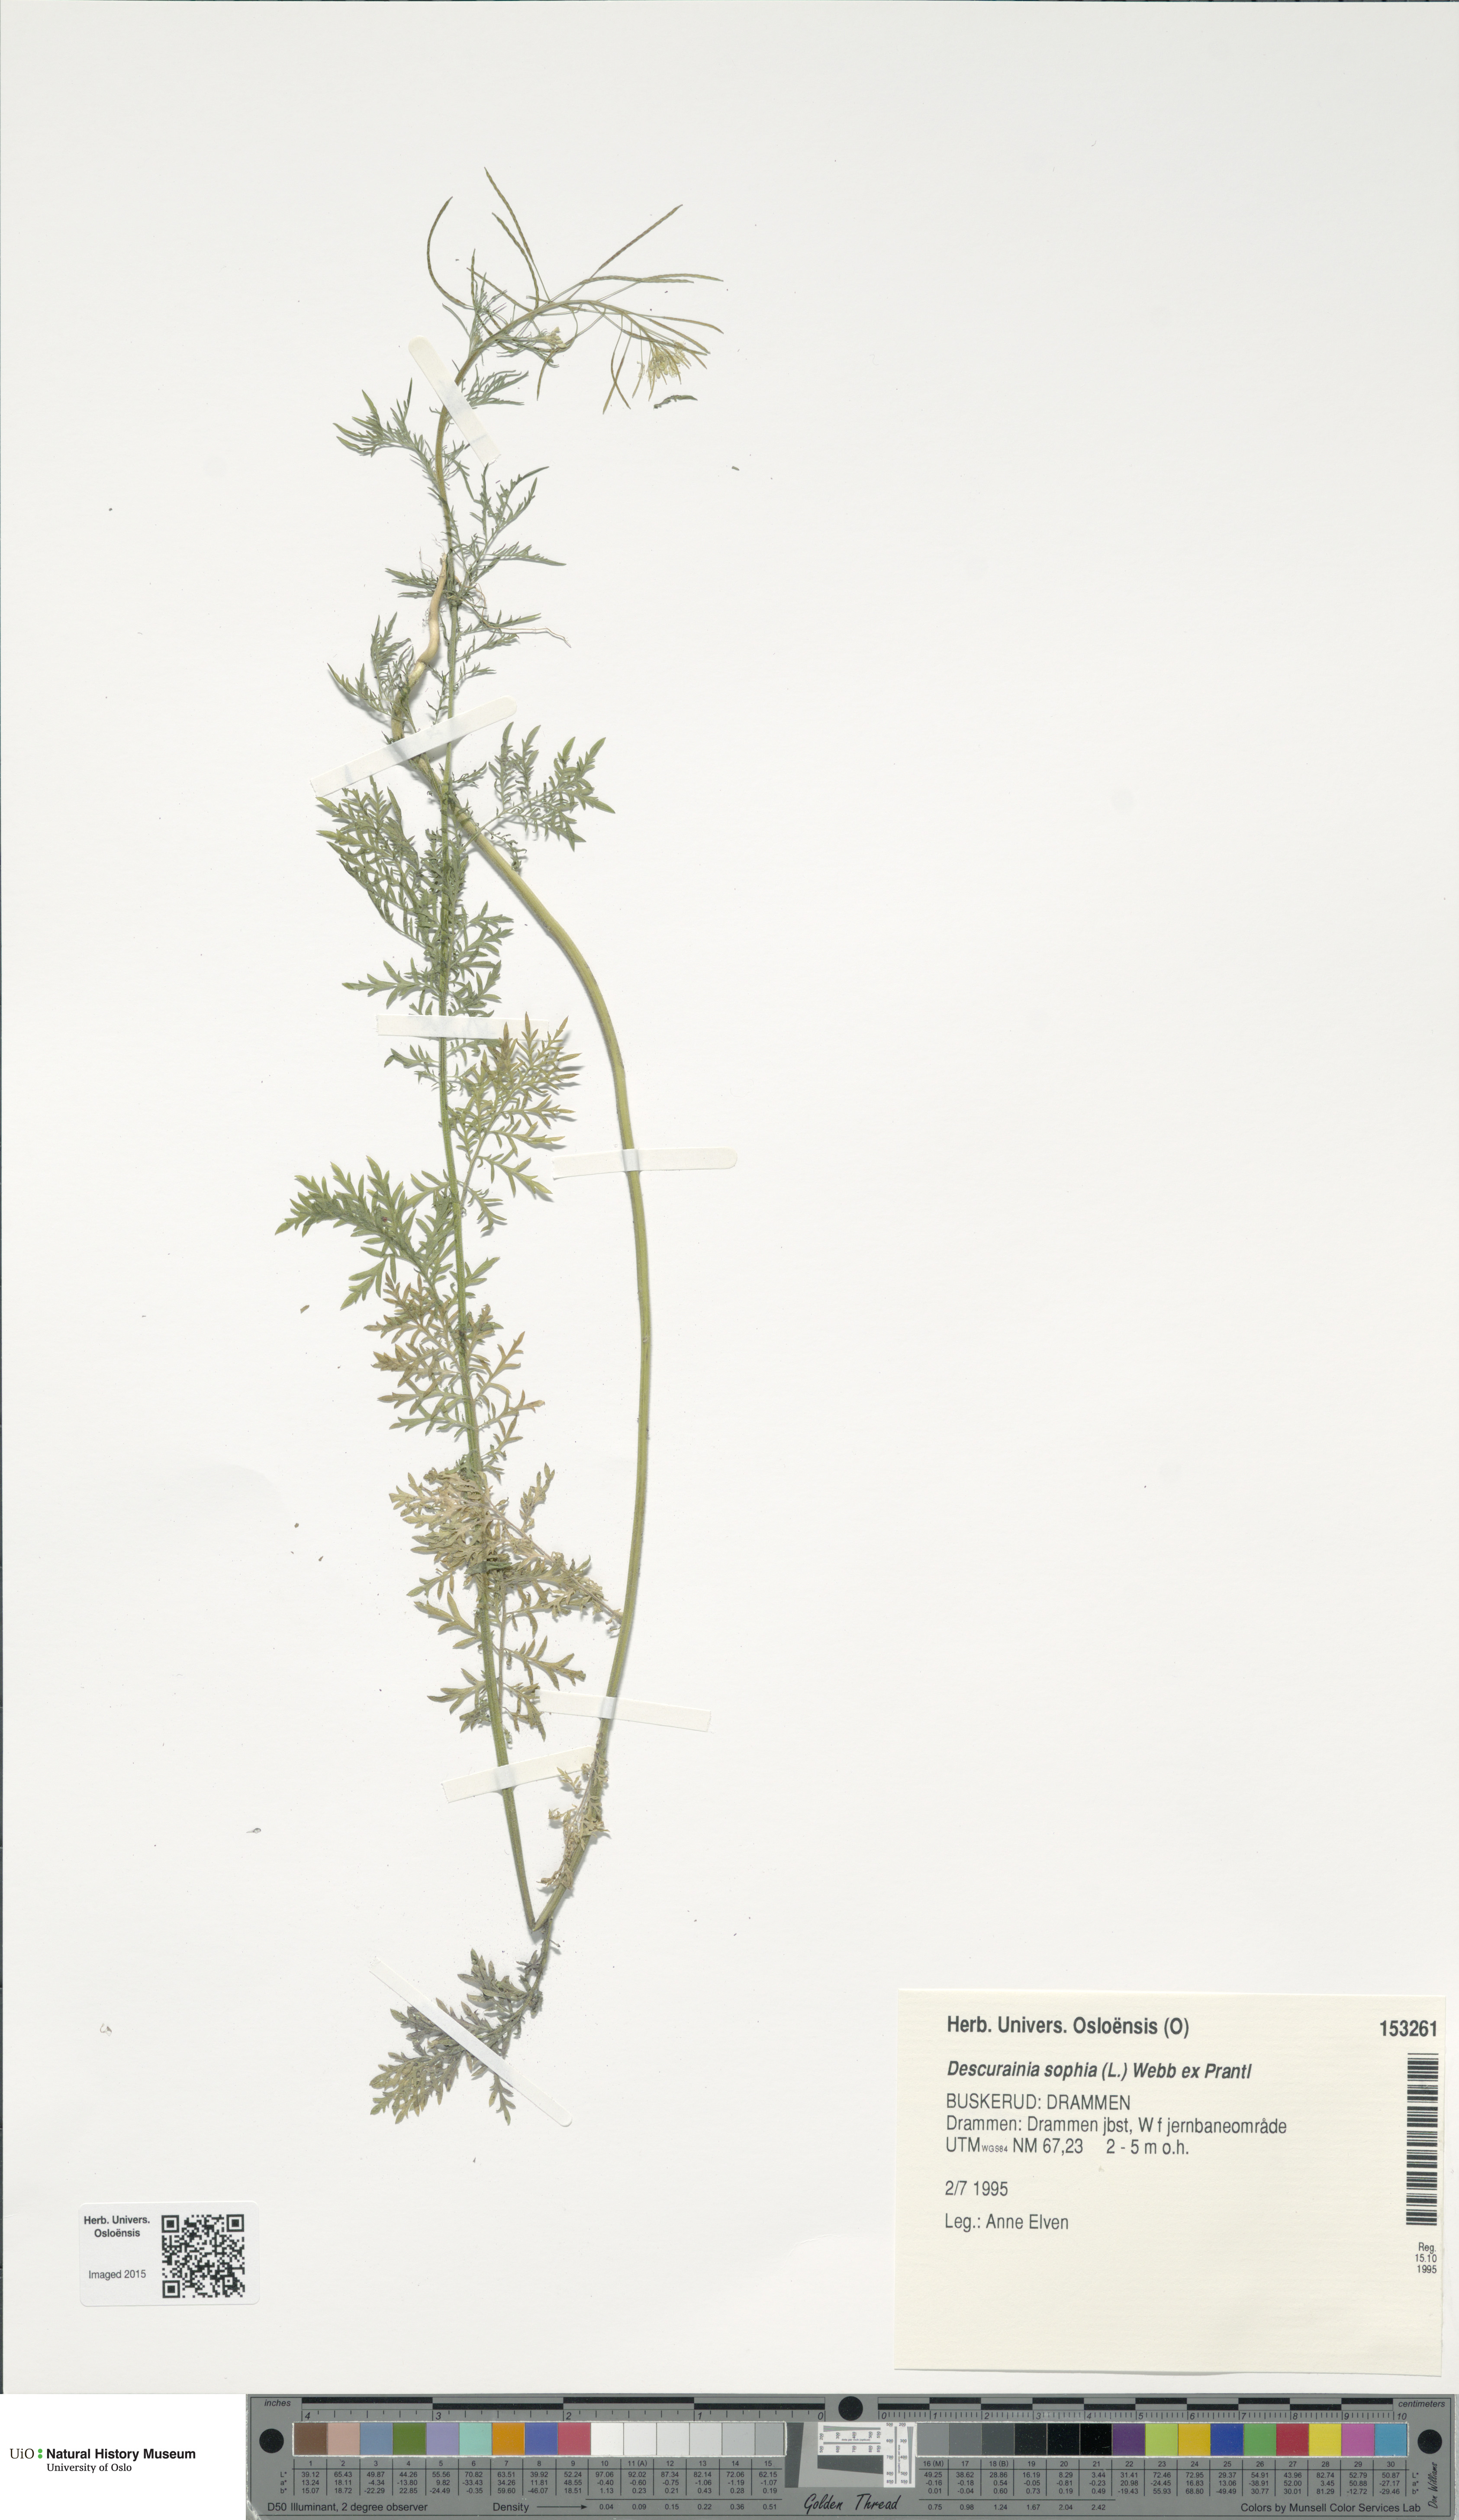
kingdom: Plantae
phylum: Tracheophyta
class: Magnoliopsida
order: Brassicales
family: Brassicaceae
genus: Descurainia
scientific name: Descurainia sophia
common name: Flixweed
